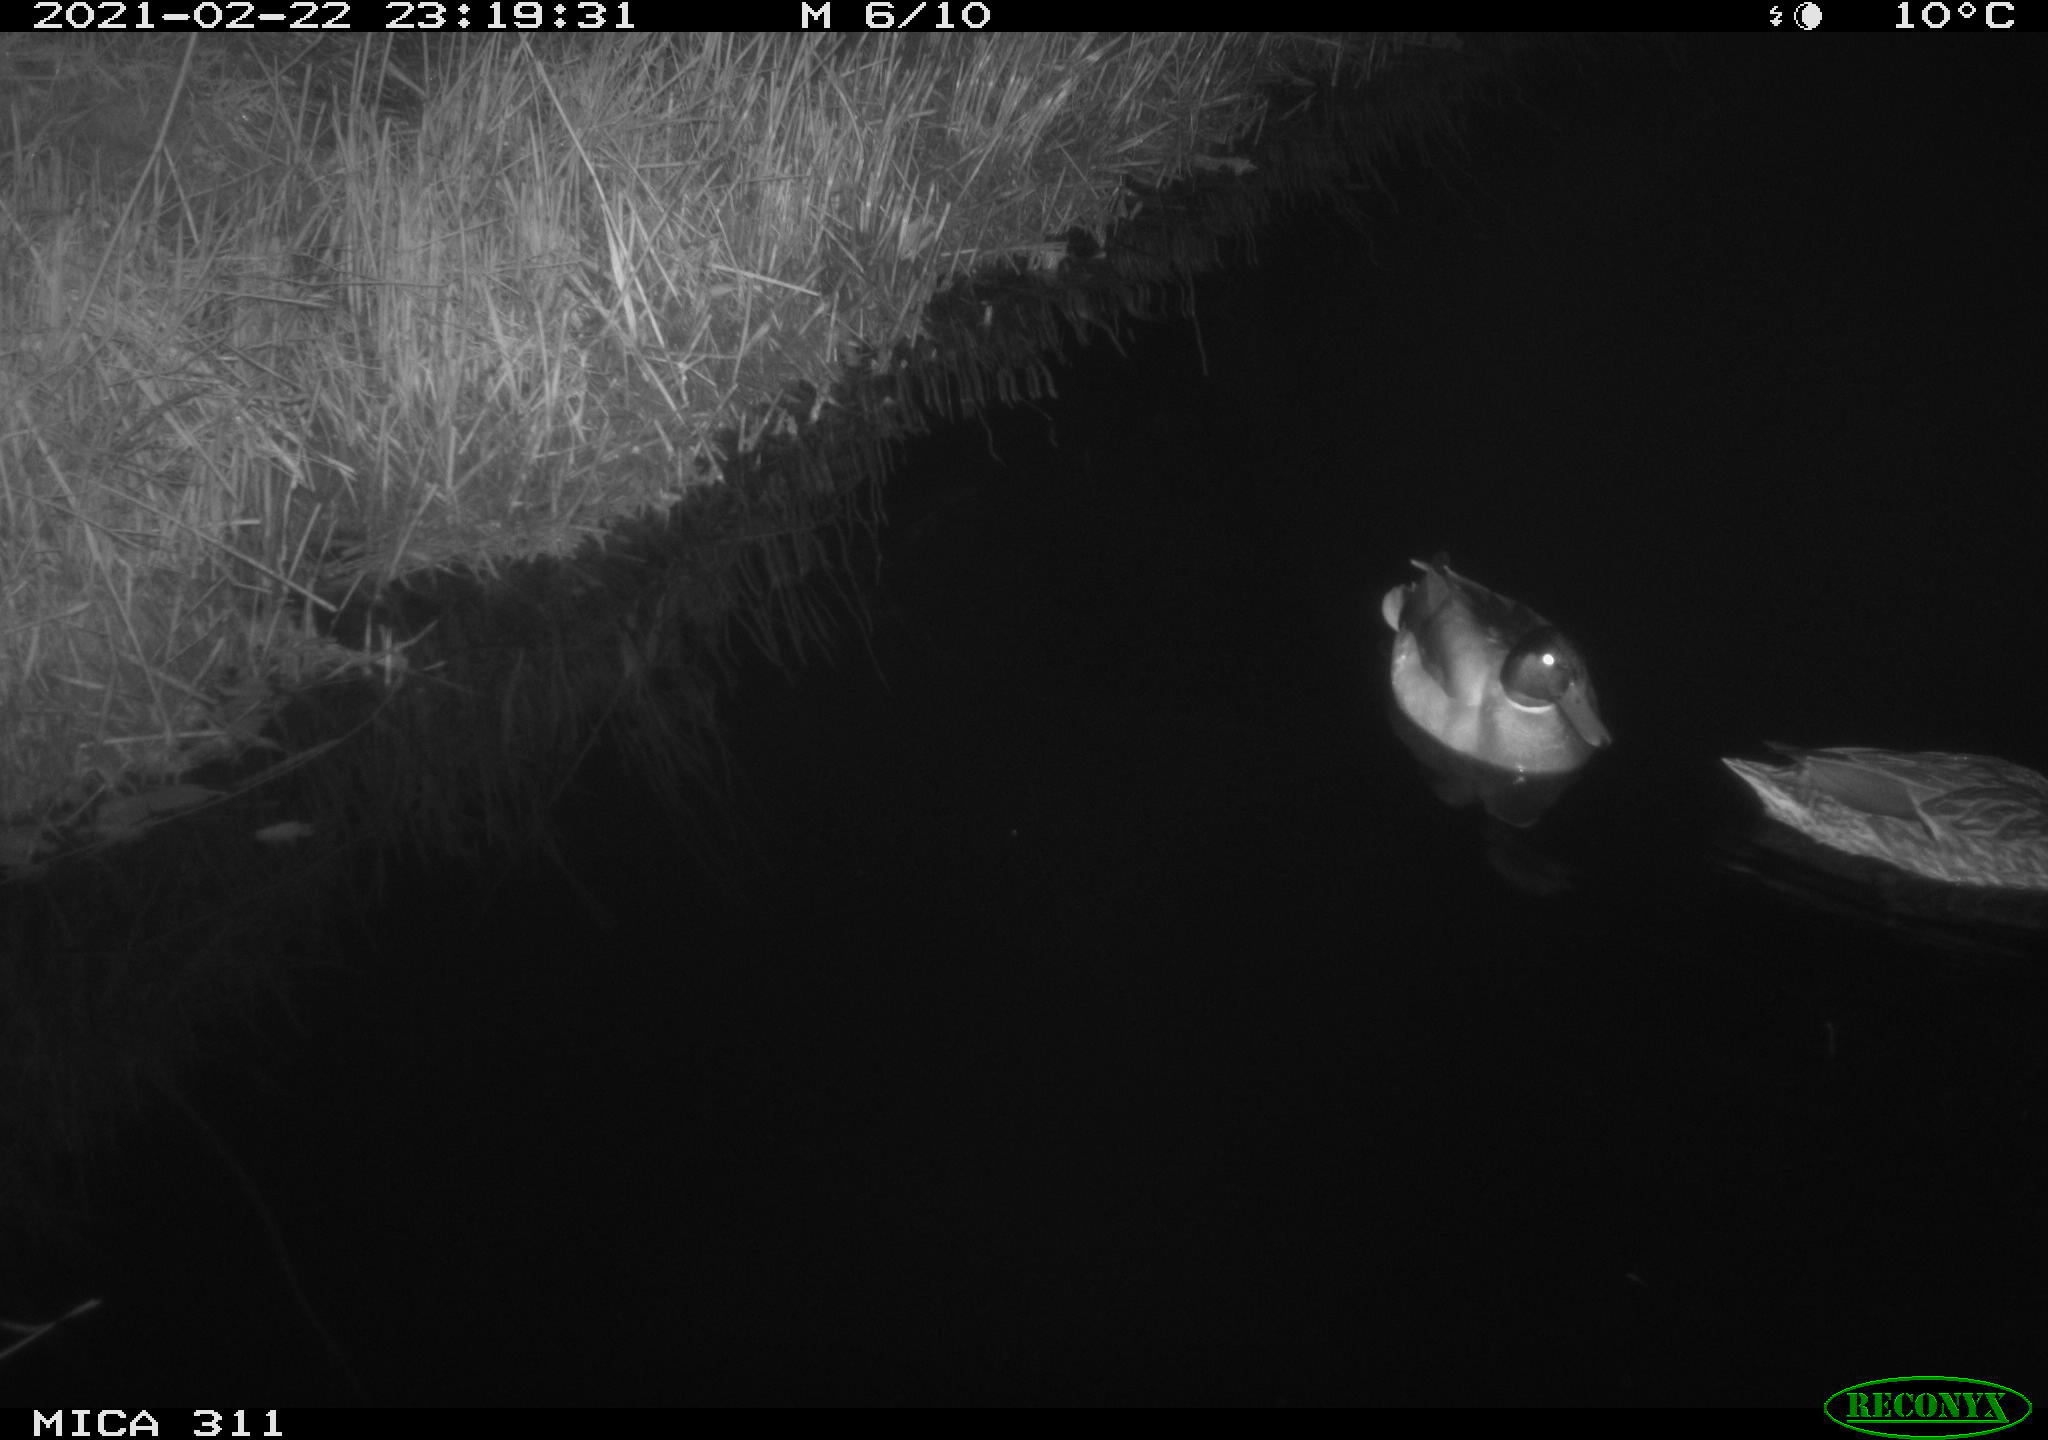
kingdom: Animalia
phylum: Chordata
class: Aves
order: Anseriformes
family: Anatidae
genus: Anas
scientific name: Anas platyrhynchos
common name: Mallard
